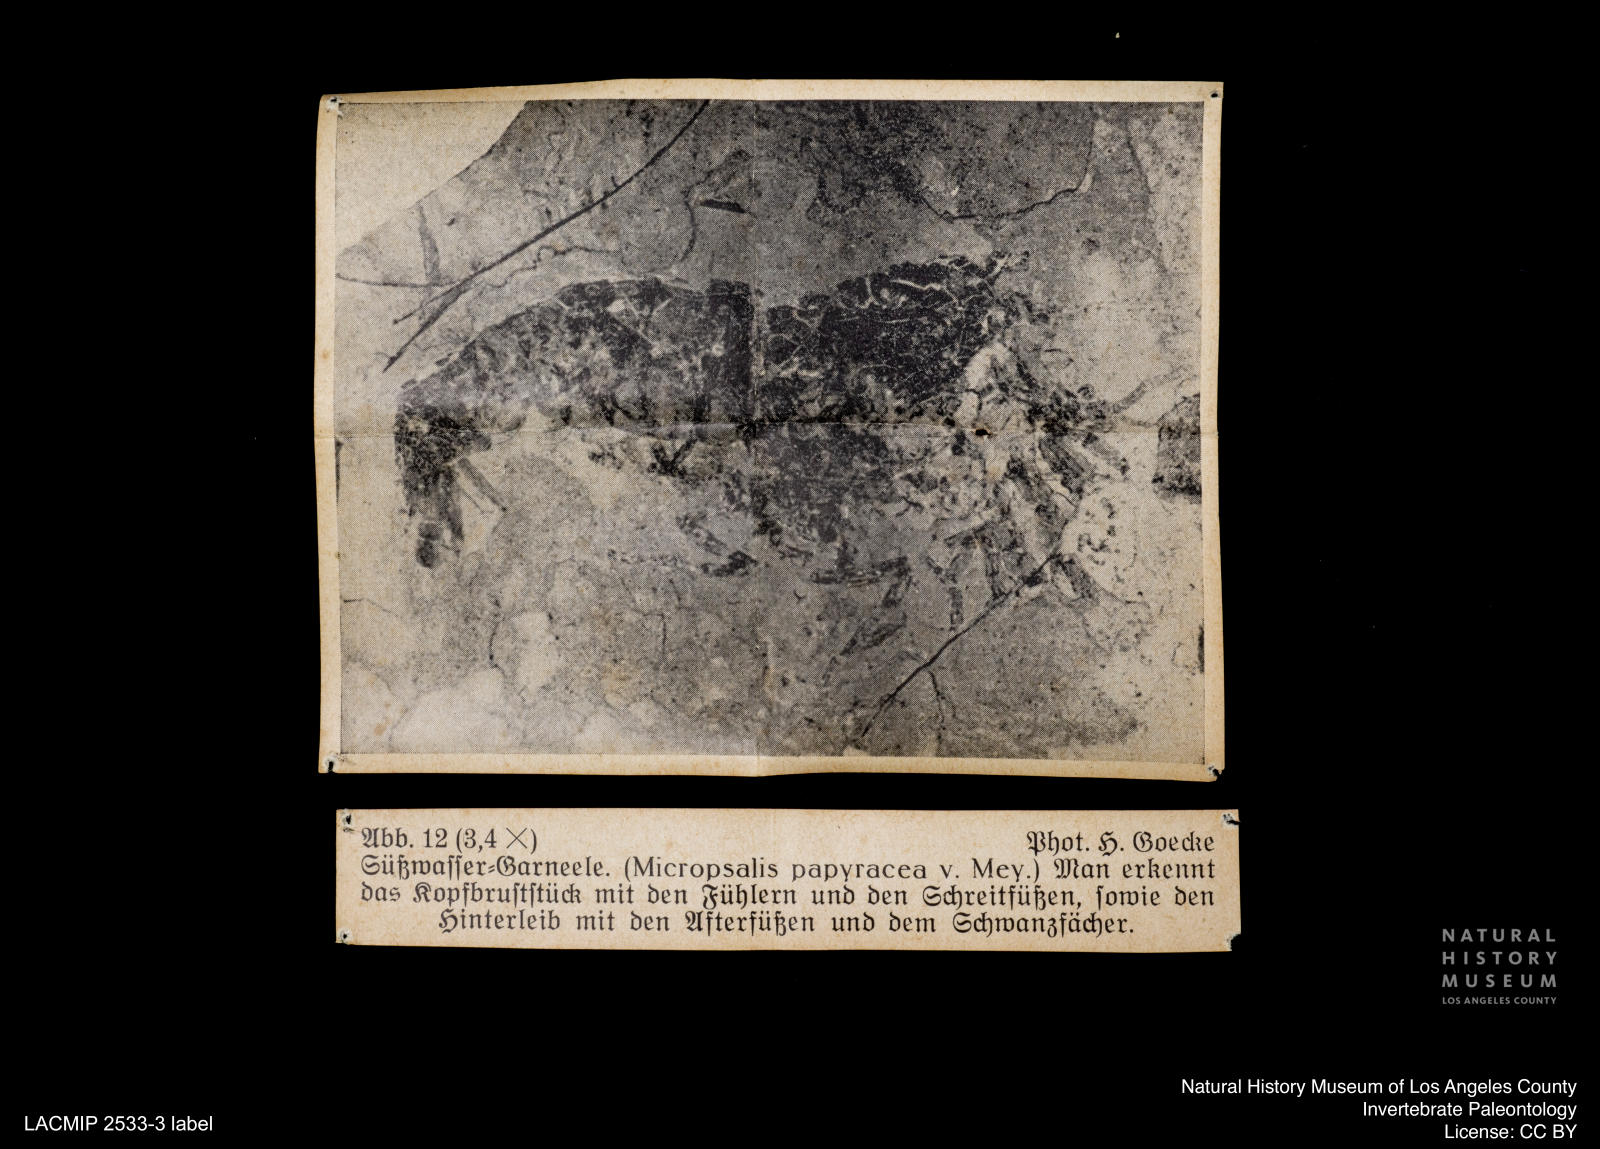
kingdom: Animalia
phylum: Arthropoda
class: Malacostraca
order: Decapoda
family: Palaemonidae
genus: Micropsalis
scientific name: Micropsalis papyracea
